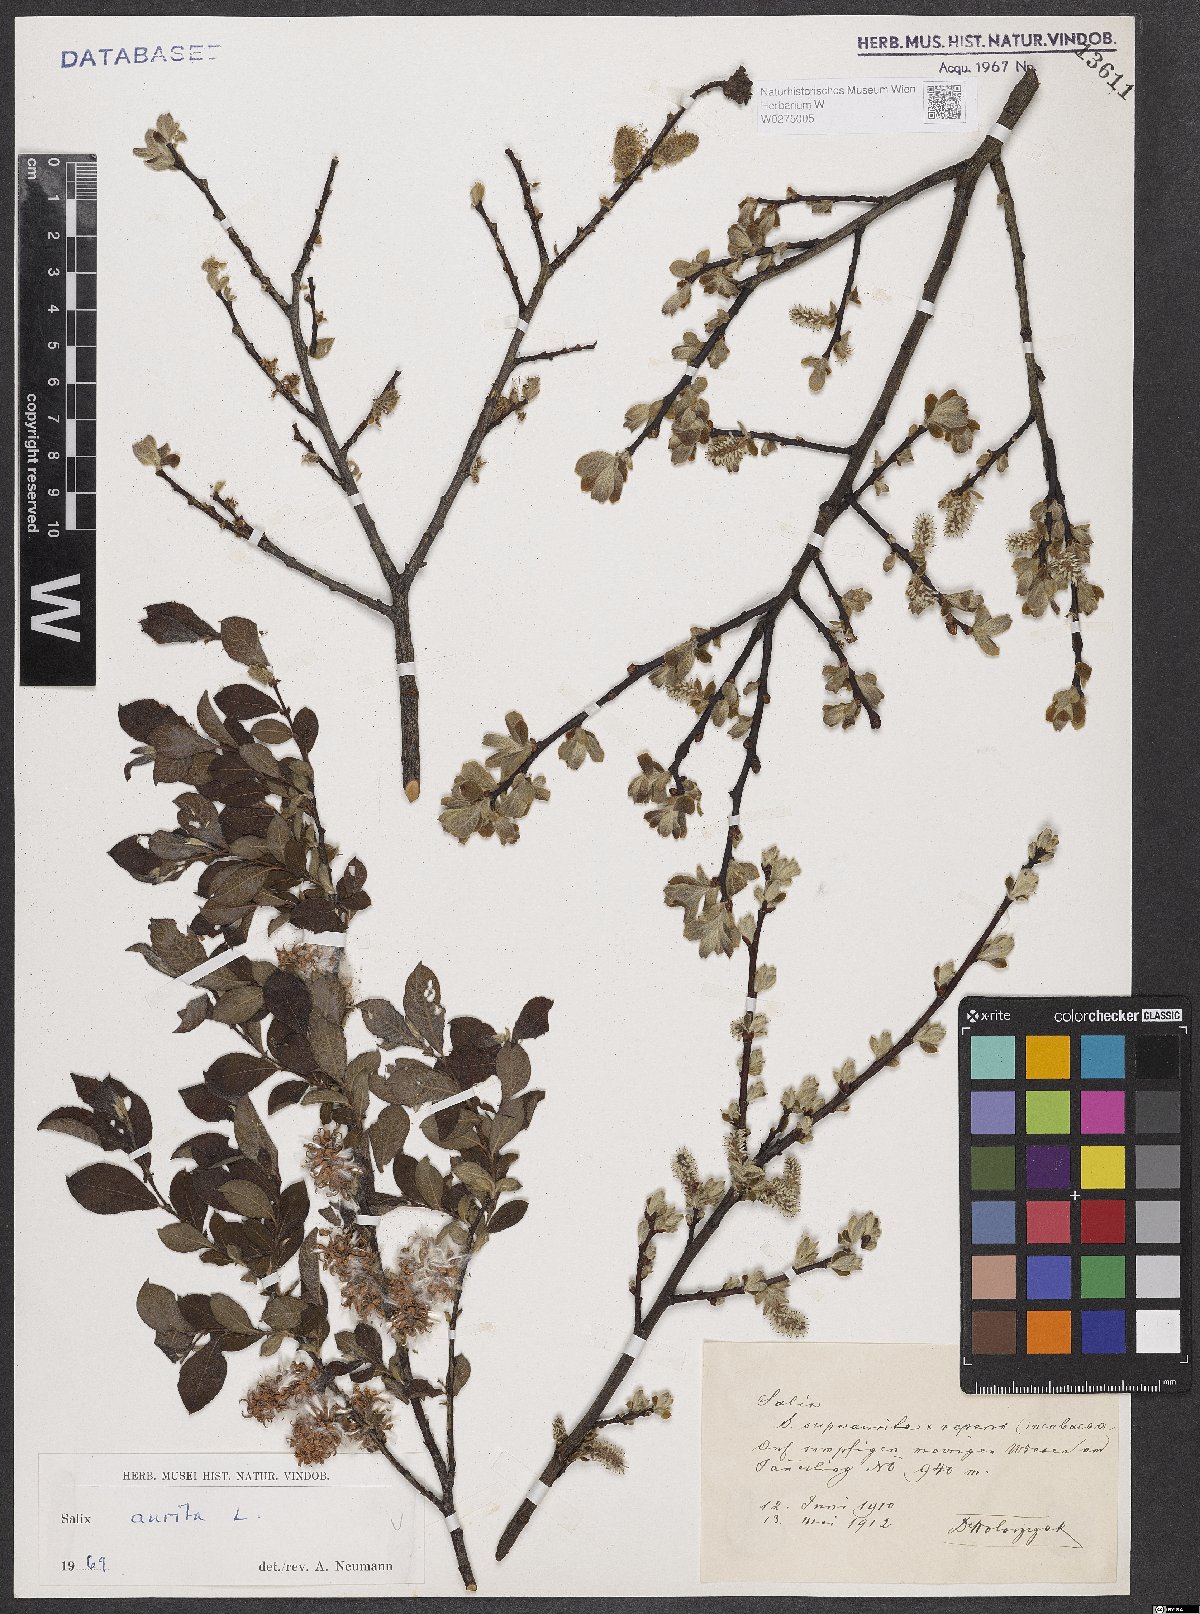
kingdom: Plantae
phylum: Tracheophyta
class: Magnoliopsida
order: Malpighiales
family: Salicaceae
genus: Salix
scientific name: Salix aurita
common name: Eared willow
